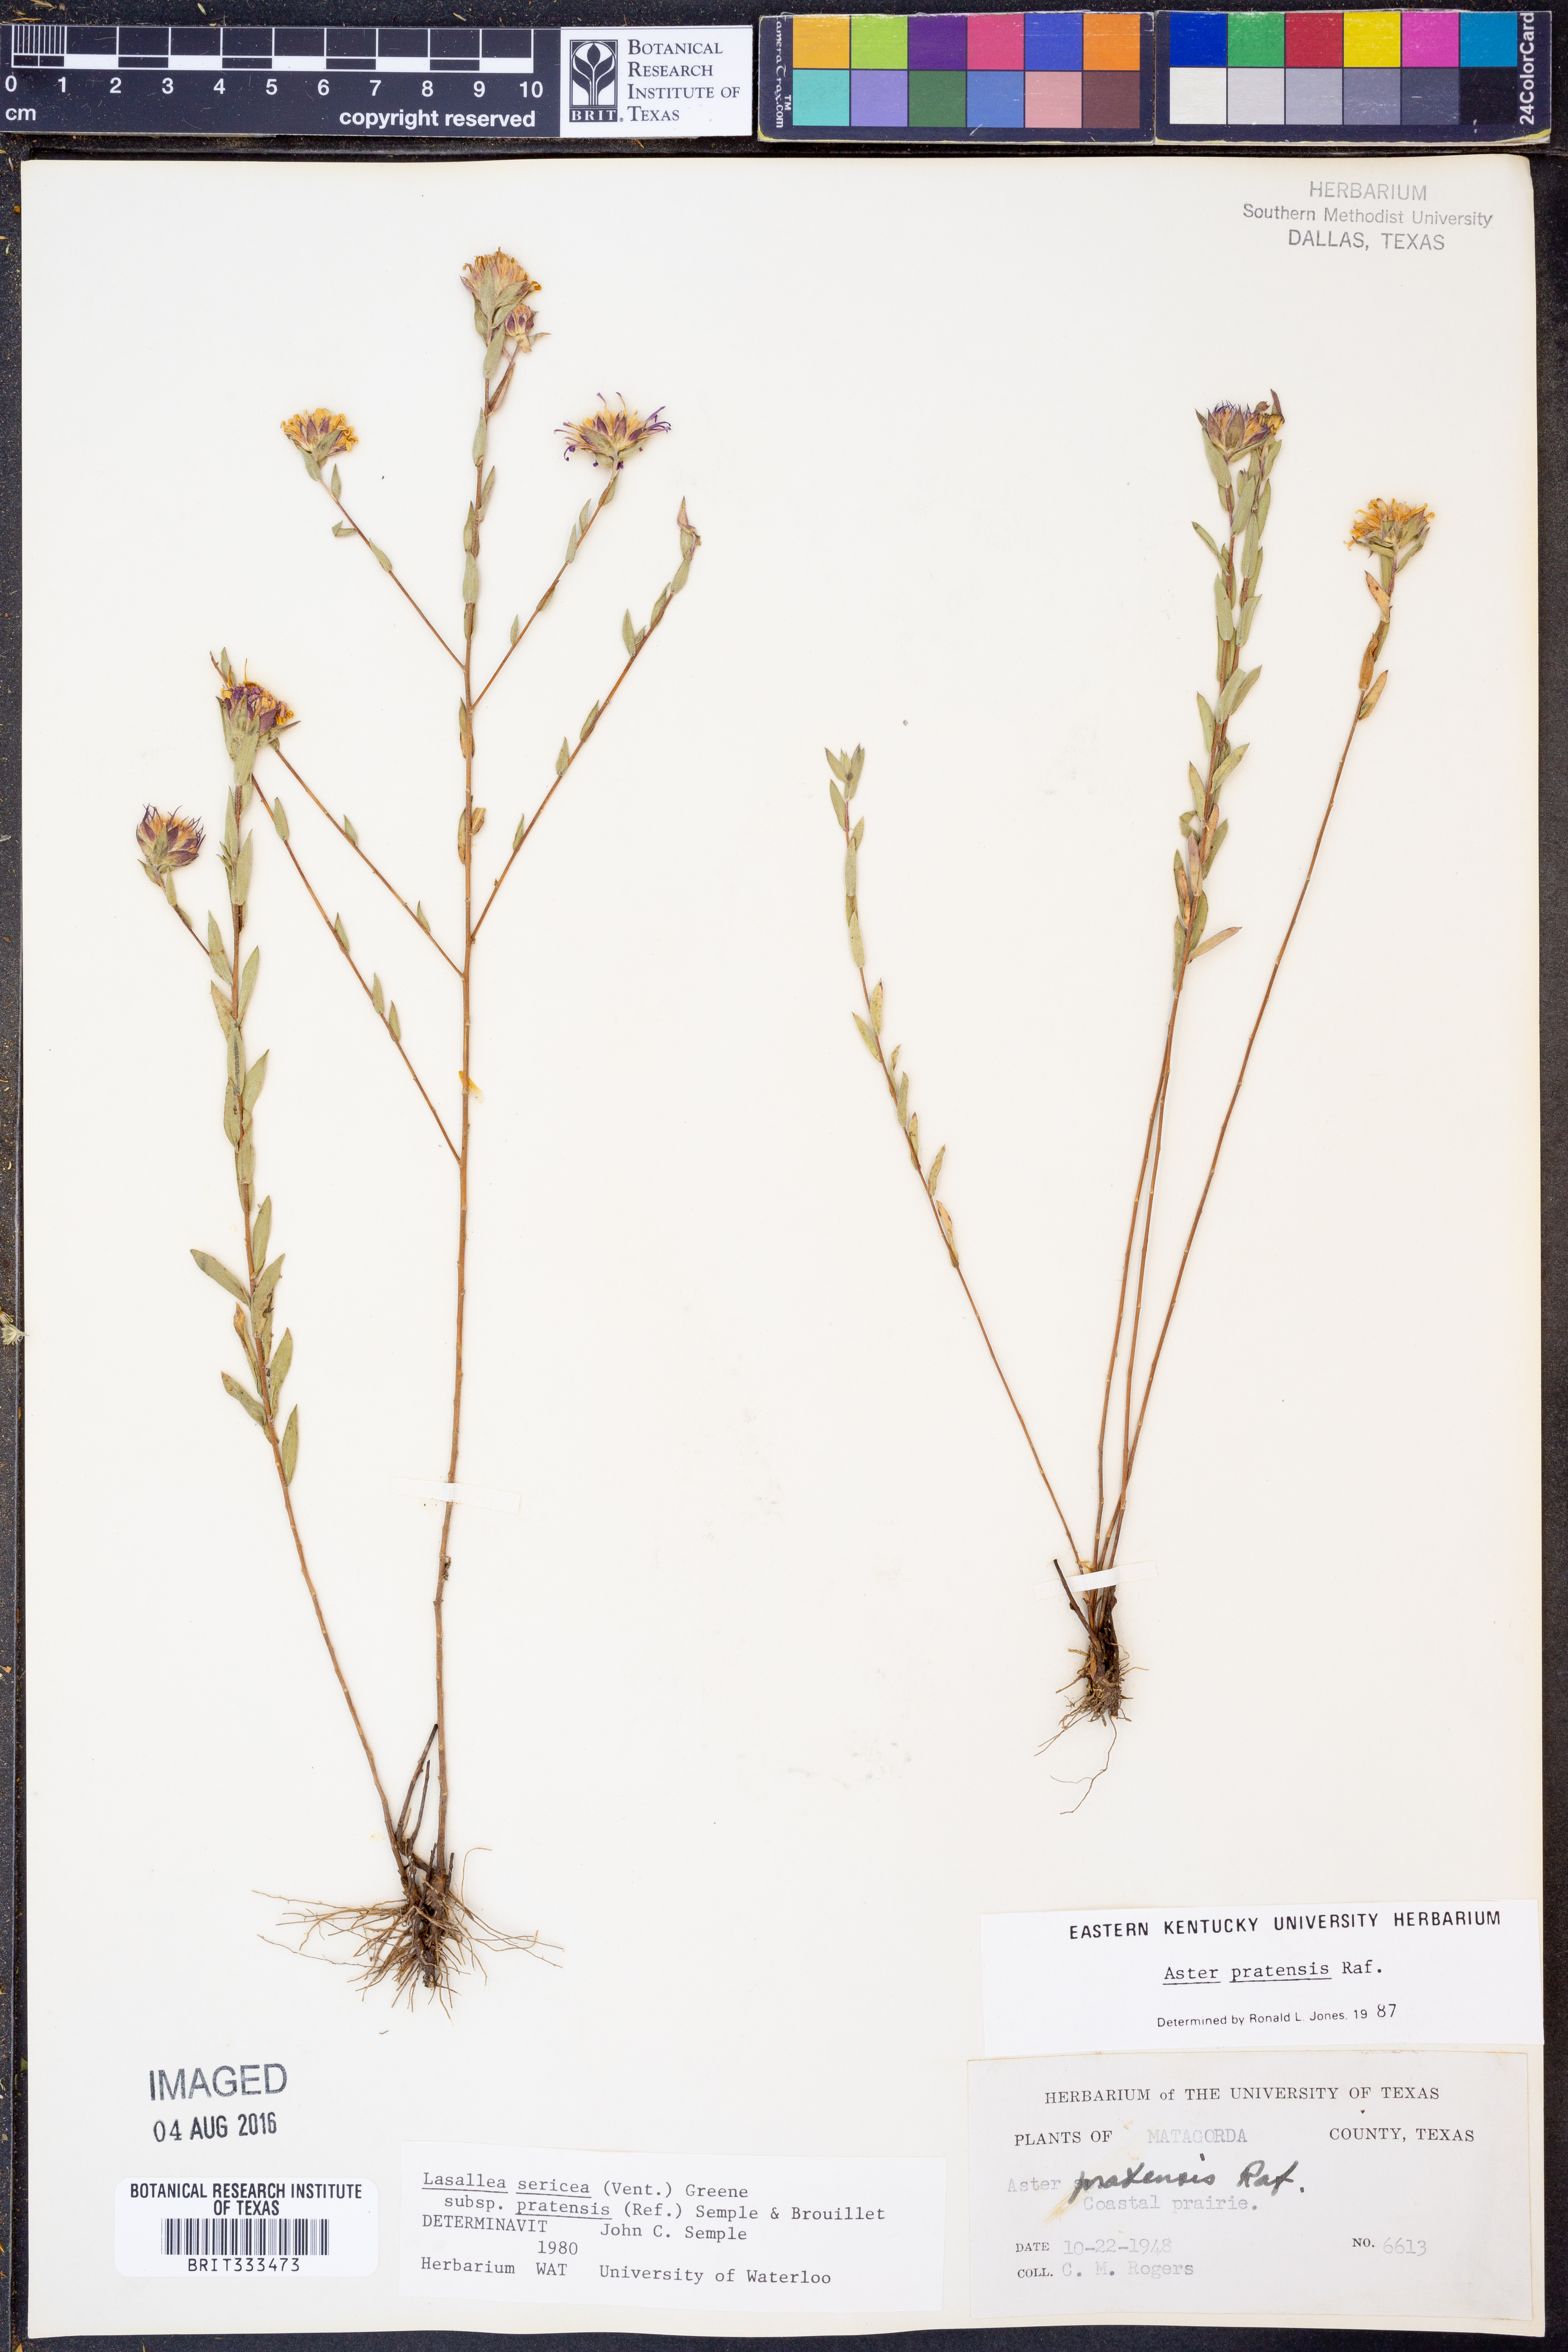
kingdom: Plantae
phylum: Tracheophyta
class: Magnoliopsida
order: Asterales
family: Asteraceae
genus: Symphyotrichum
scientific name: Symphyotrichum pratense
